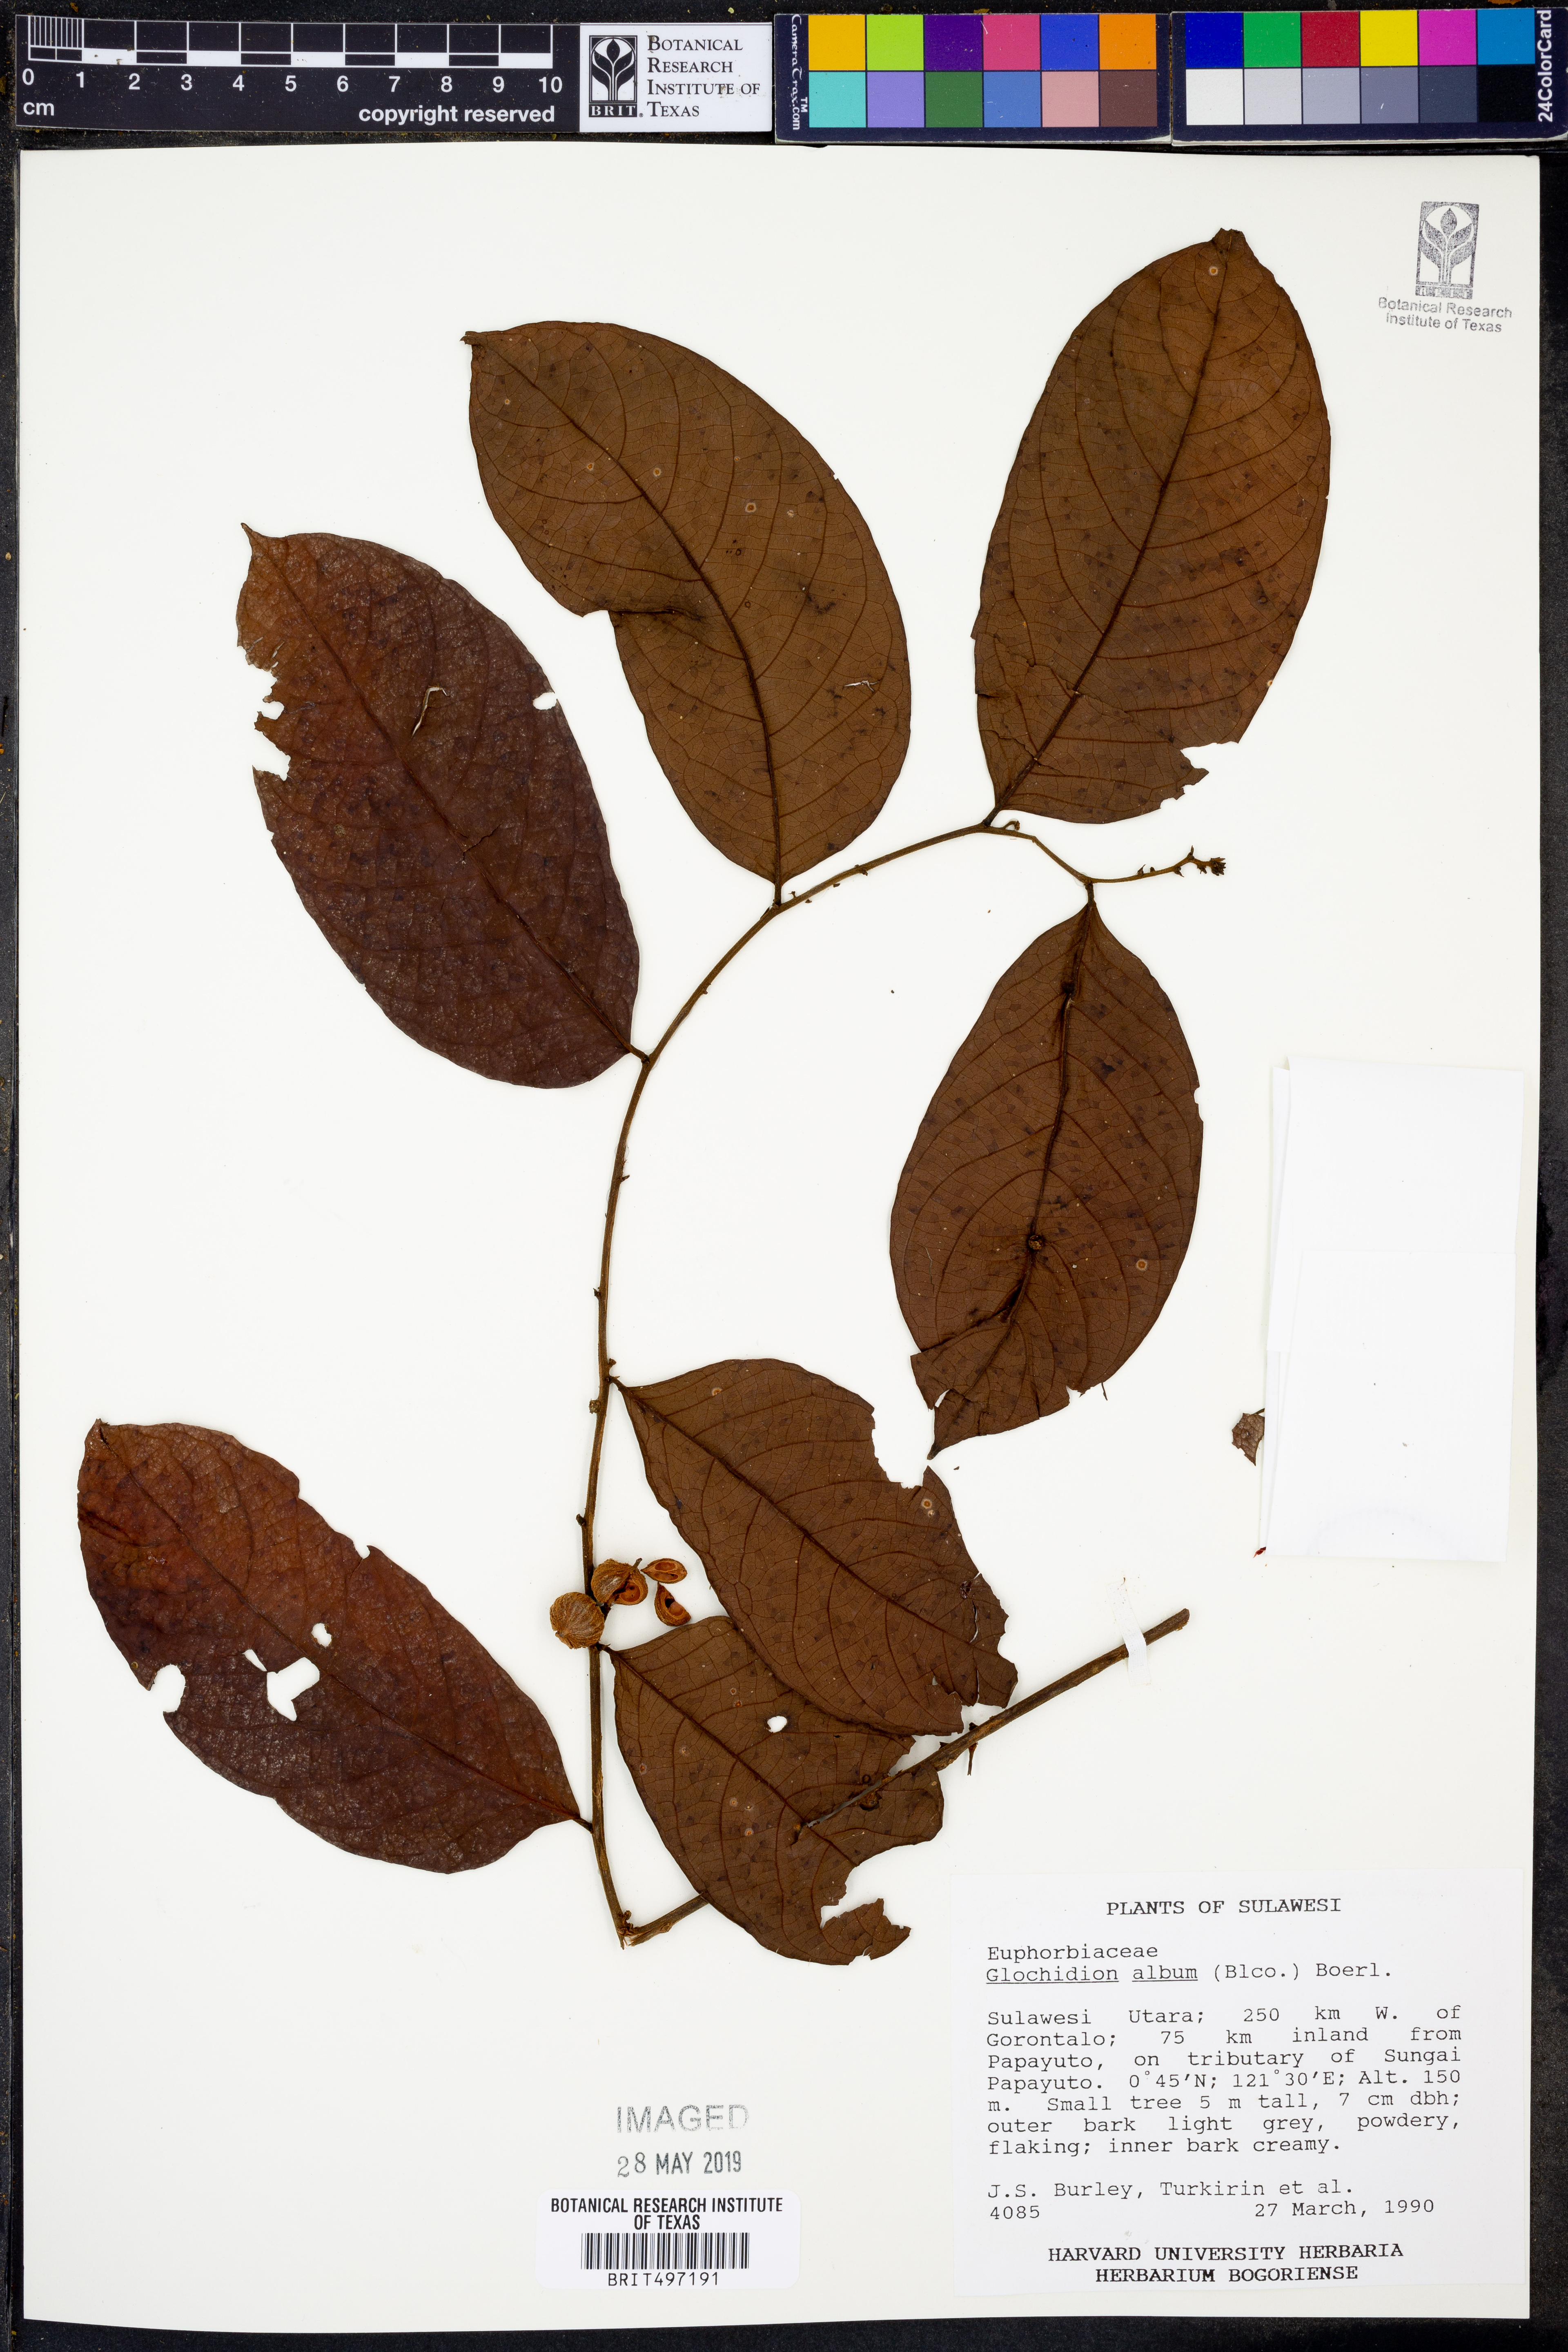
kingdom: Plantae
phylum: Tracheophyta
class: Magnoliopsida
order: Malpighiales
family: Phyllanthaceae
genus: Glochidion
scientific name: Glochidion album
